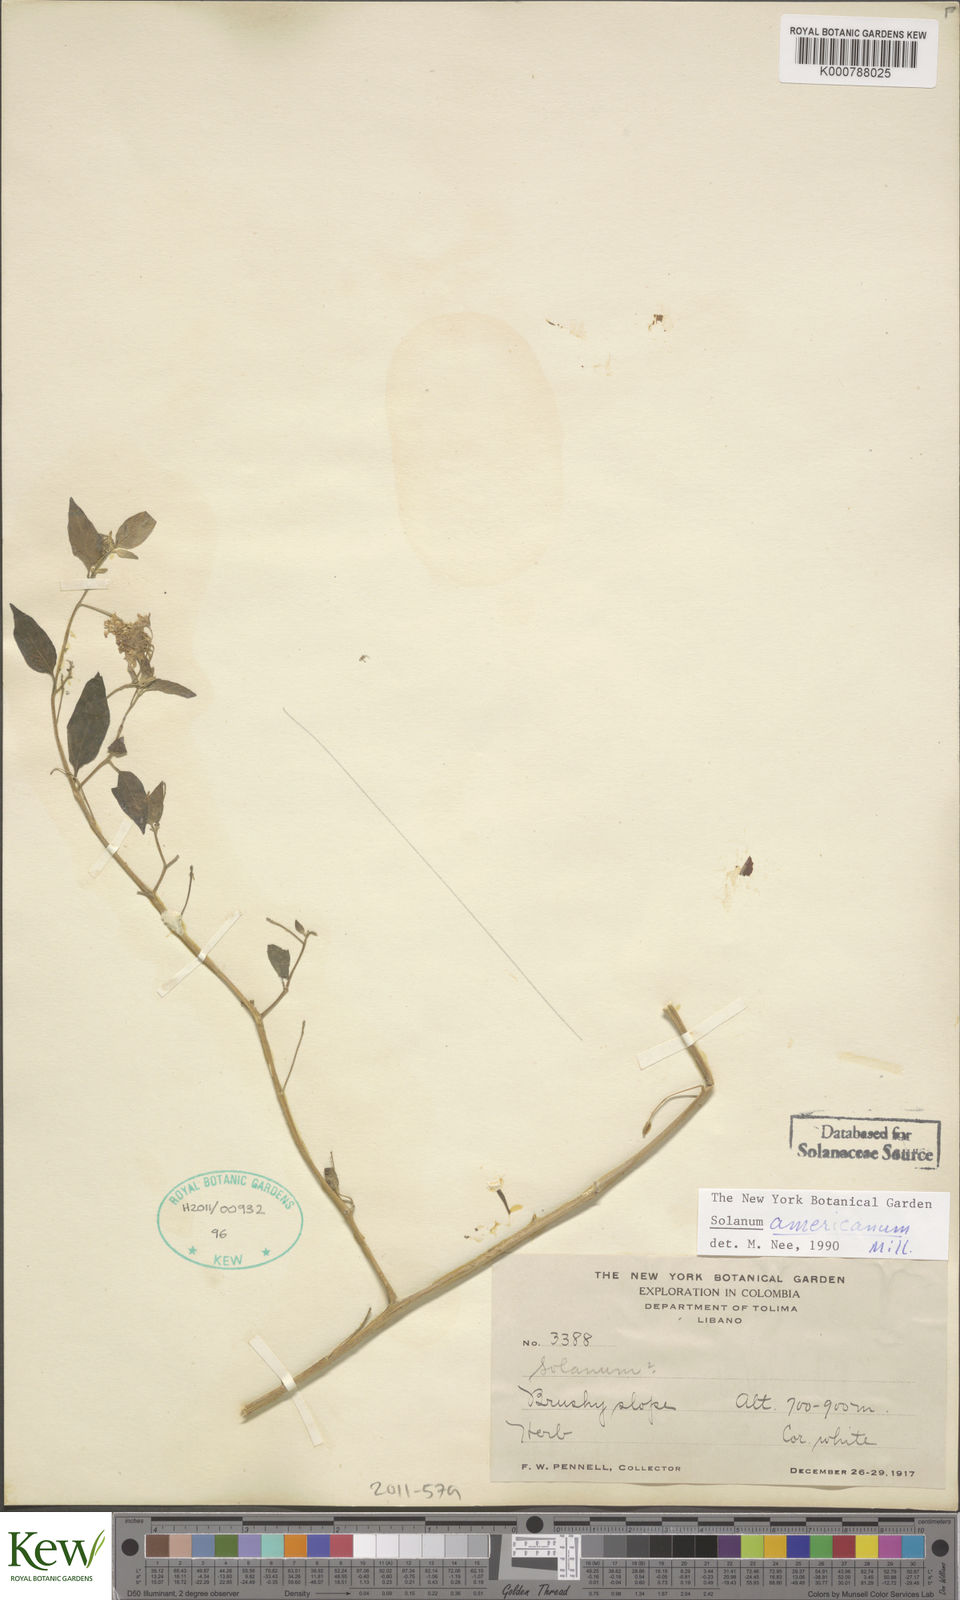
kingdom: Plantae
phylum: Tracheophyta
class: Magnoliopsida
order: Solanales
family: Solanaceae
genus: Solanum
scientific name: Solanum nigrescens
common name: Divine nightshade
